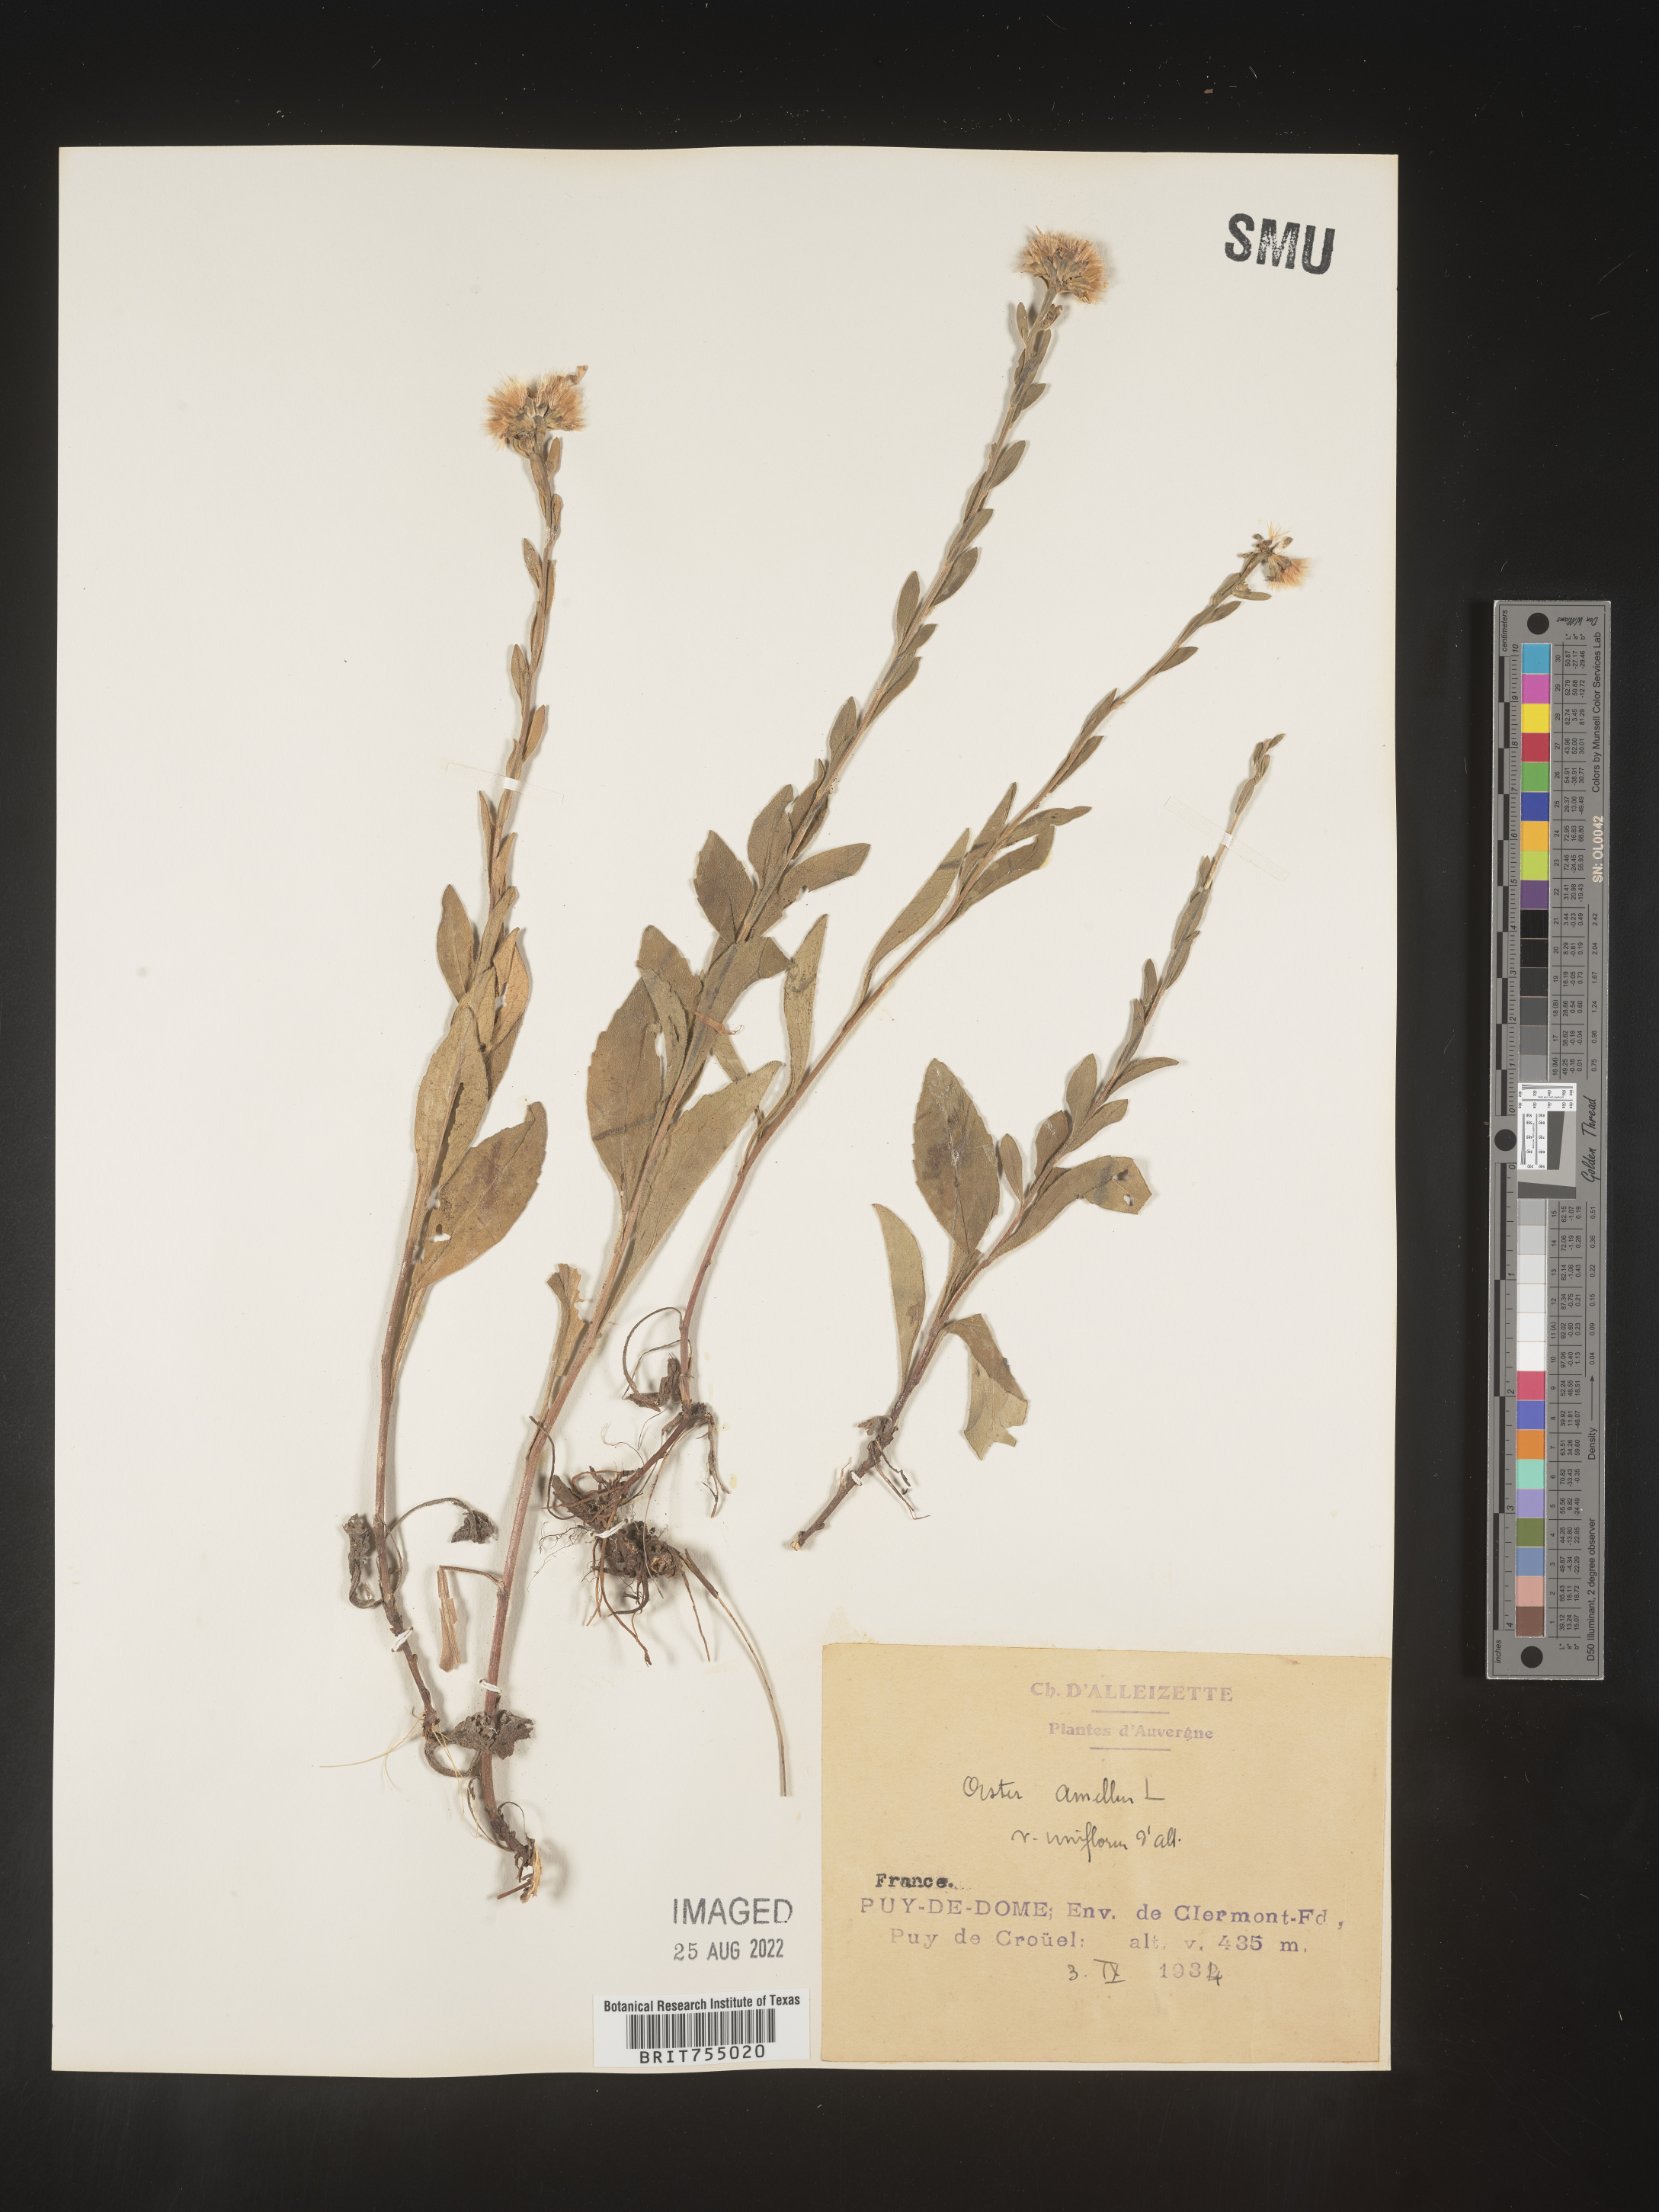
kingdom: Plantae
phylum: Tracheophyta
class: Magnoliopsida
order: Asterales
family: Asteraceae
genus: Symphyotrichum
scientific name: Symphyotrichum
